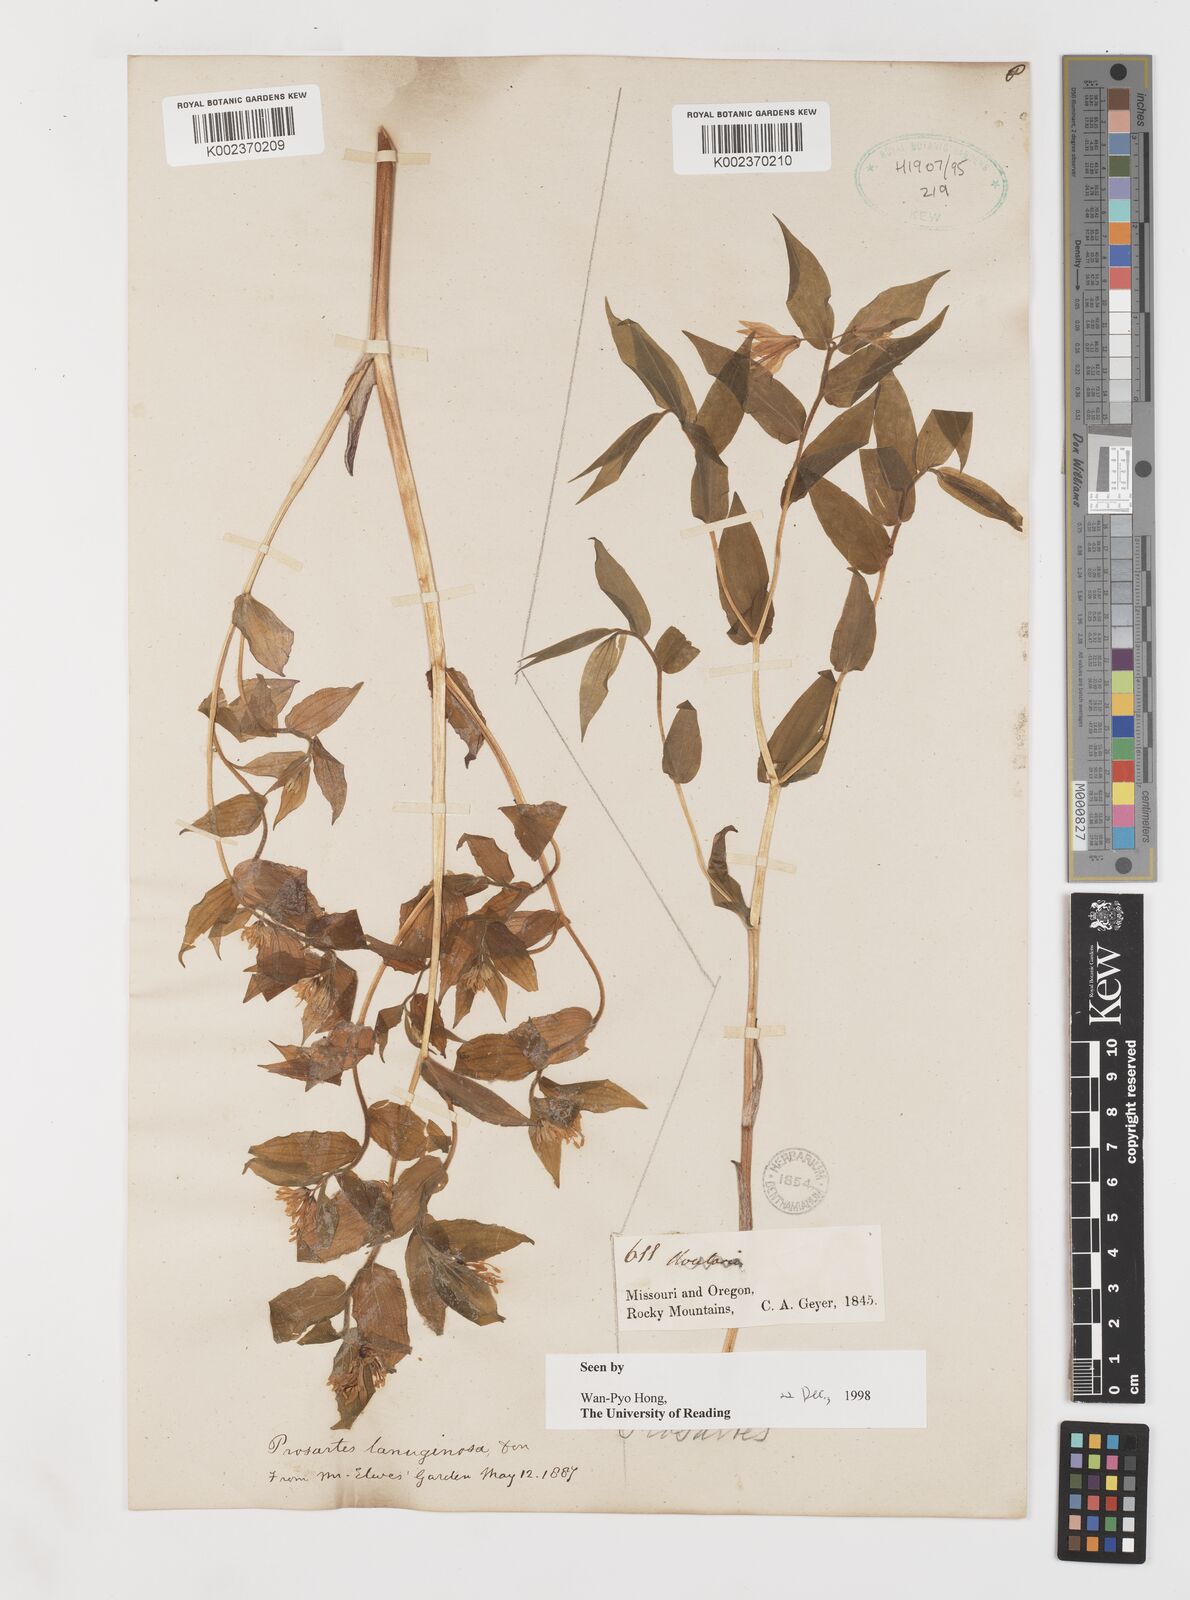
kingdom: Plantae
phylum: Tracheophyta
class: Liliopsida
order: Liliales
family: Liliaceae
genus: Prosartes
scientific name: Prosartes lanuginosa
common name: Hairy mandarin
